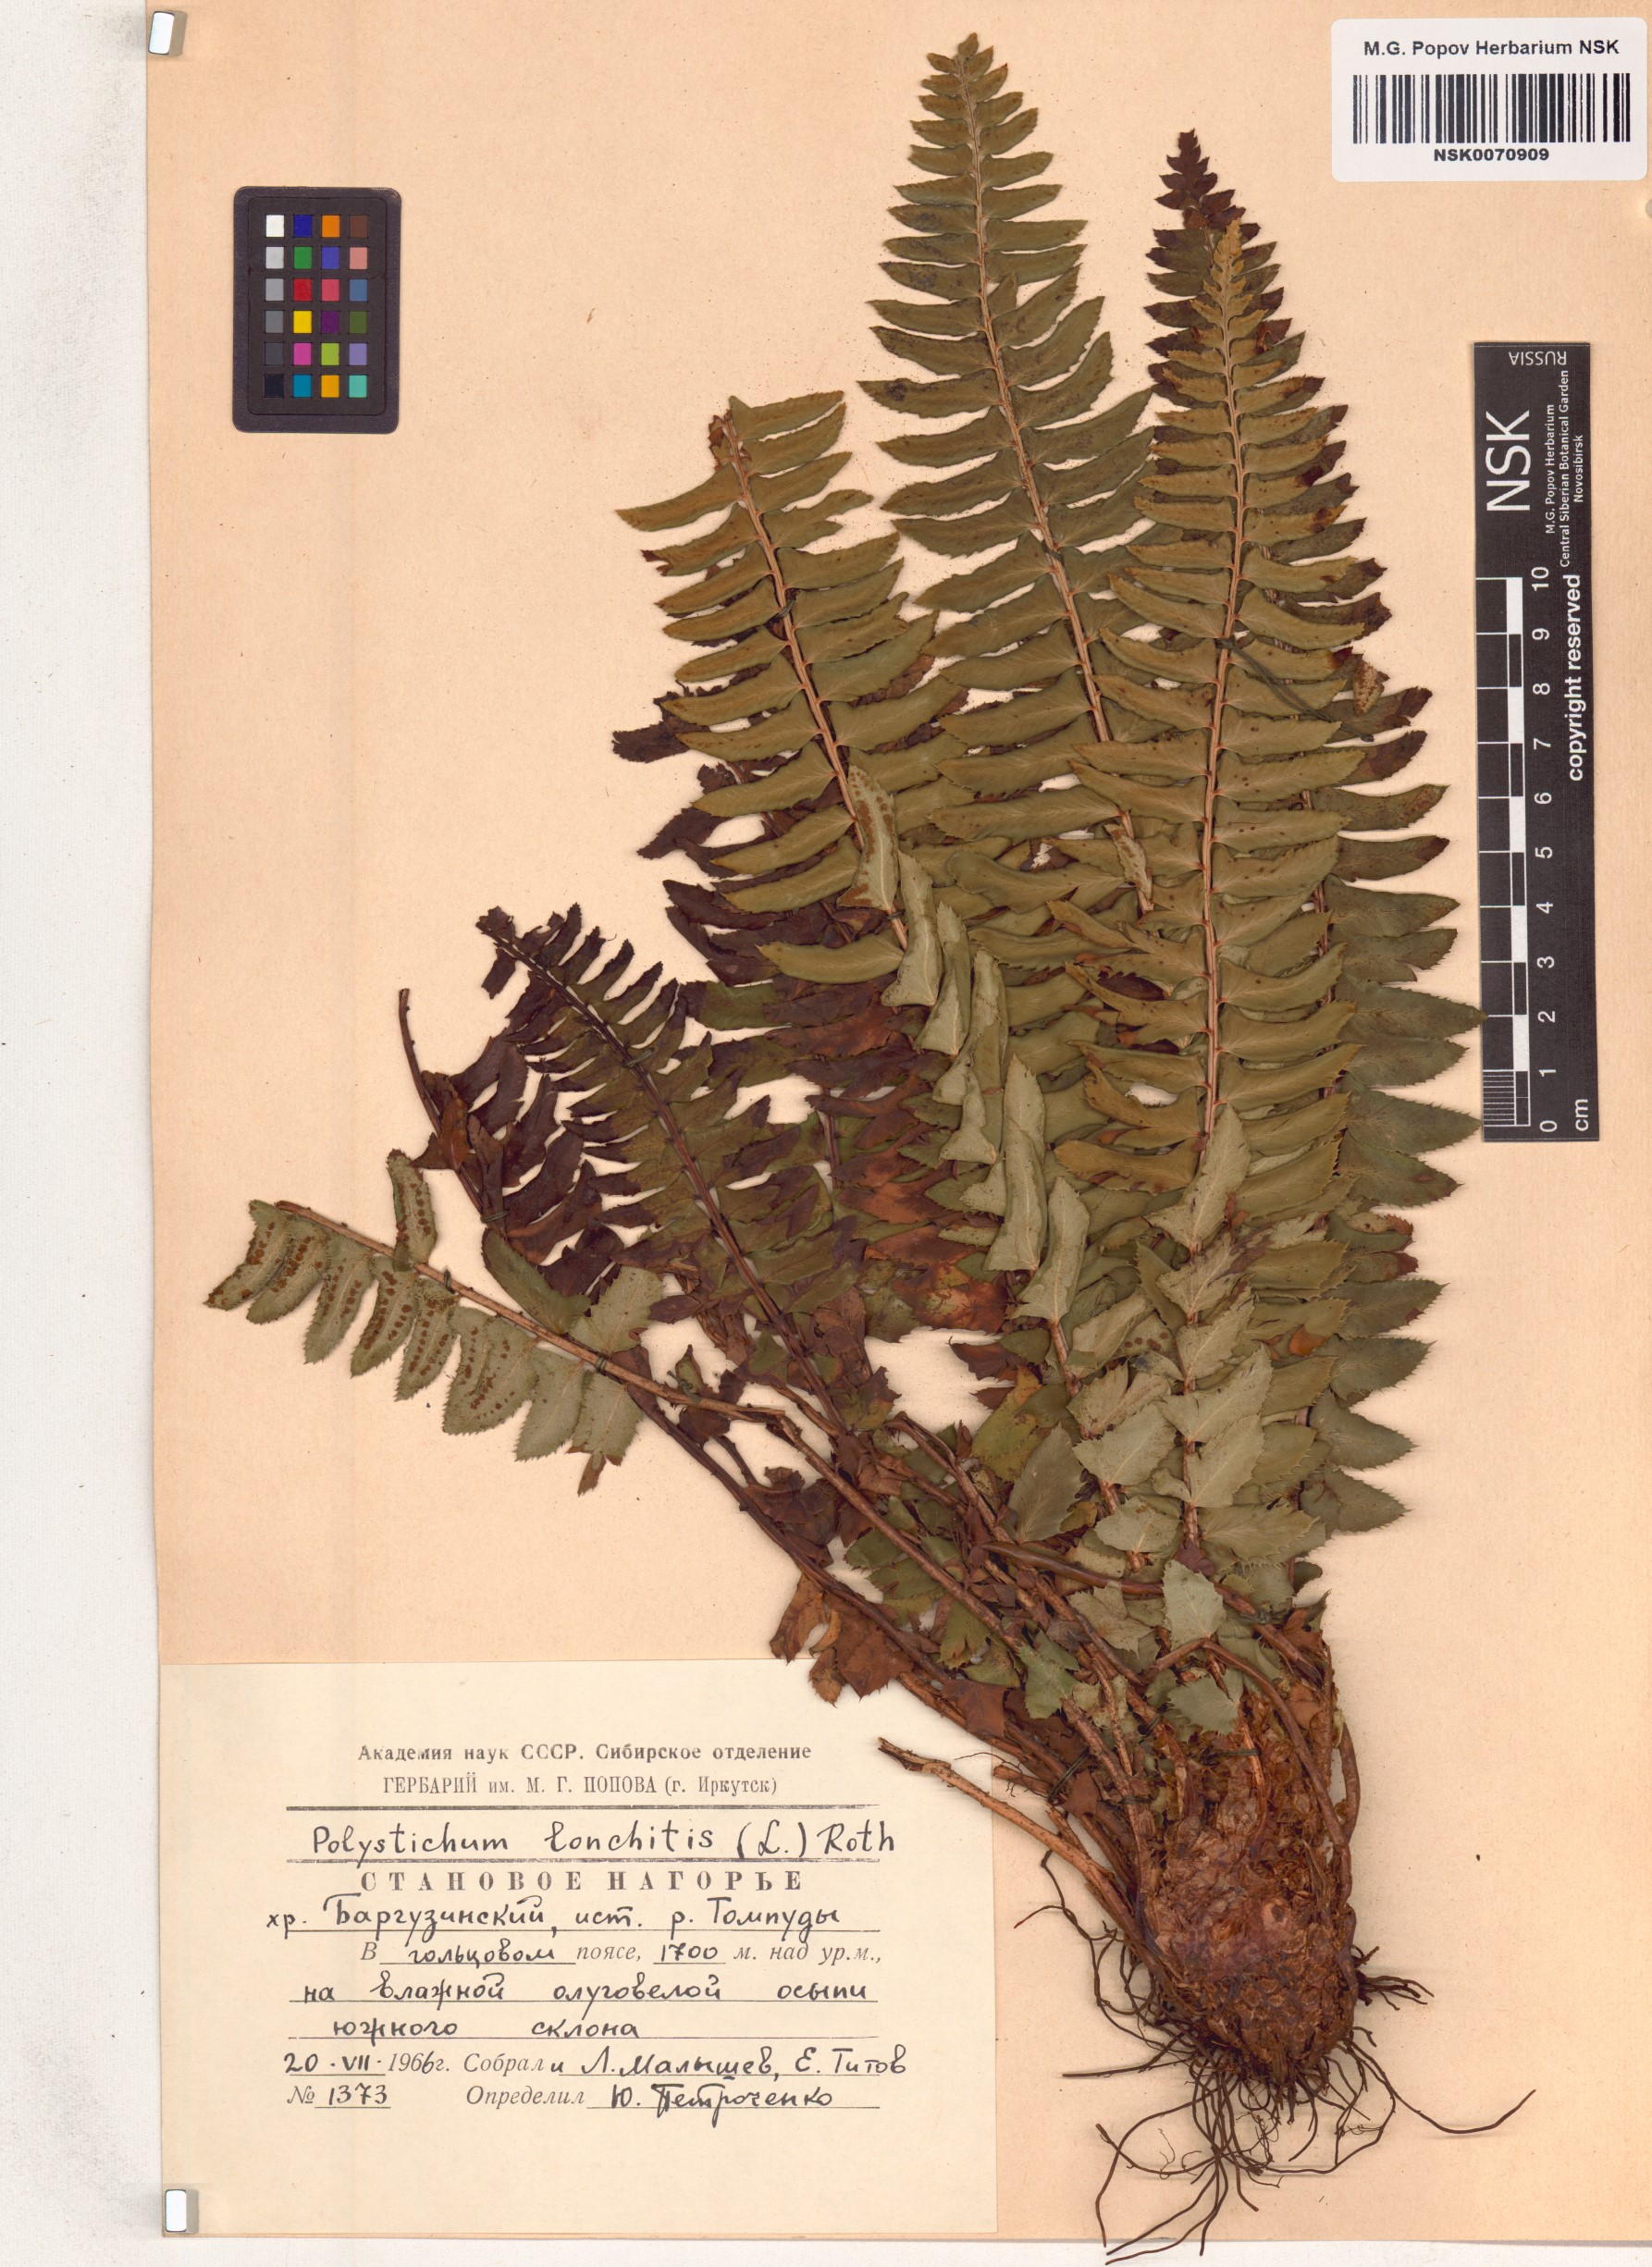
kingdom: Plantae
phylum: Tracheophyta
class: Polypodiopsida
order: Polypodiales
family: Dryopteridaceae
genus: Polystichum
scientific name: Polystichum lonchitis
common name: Holly fern
